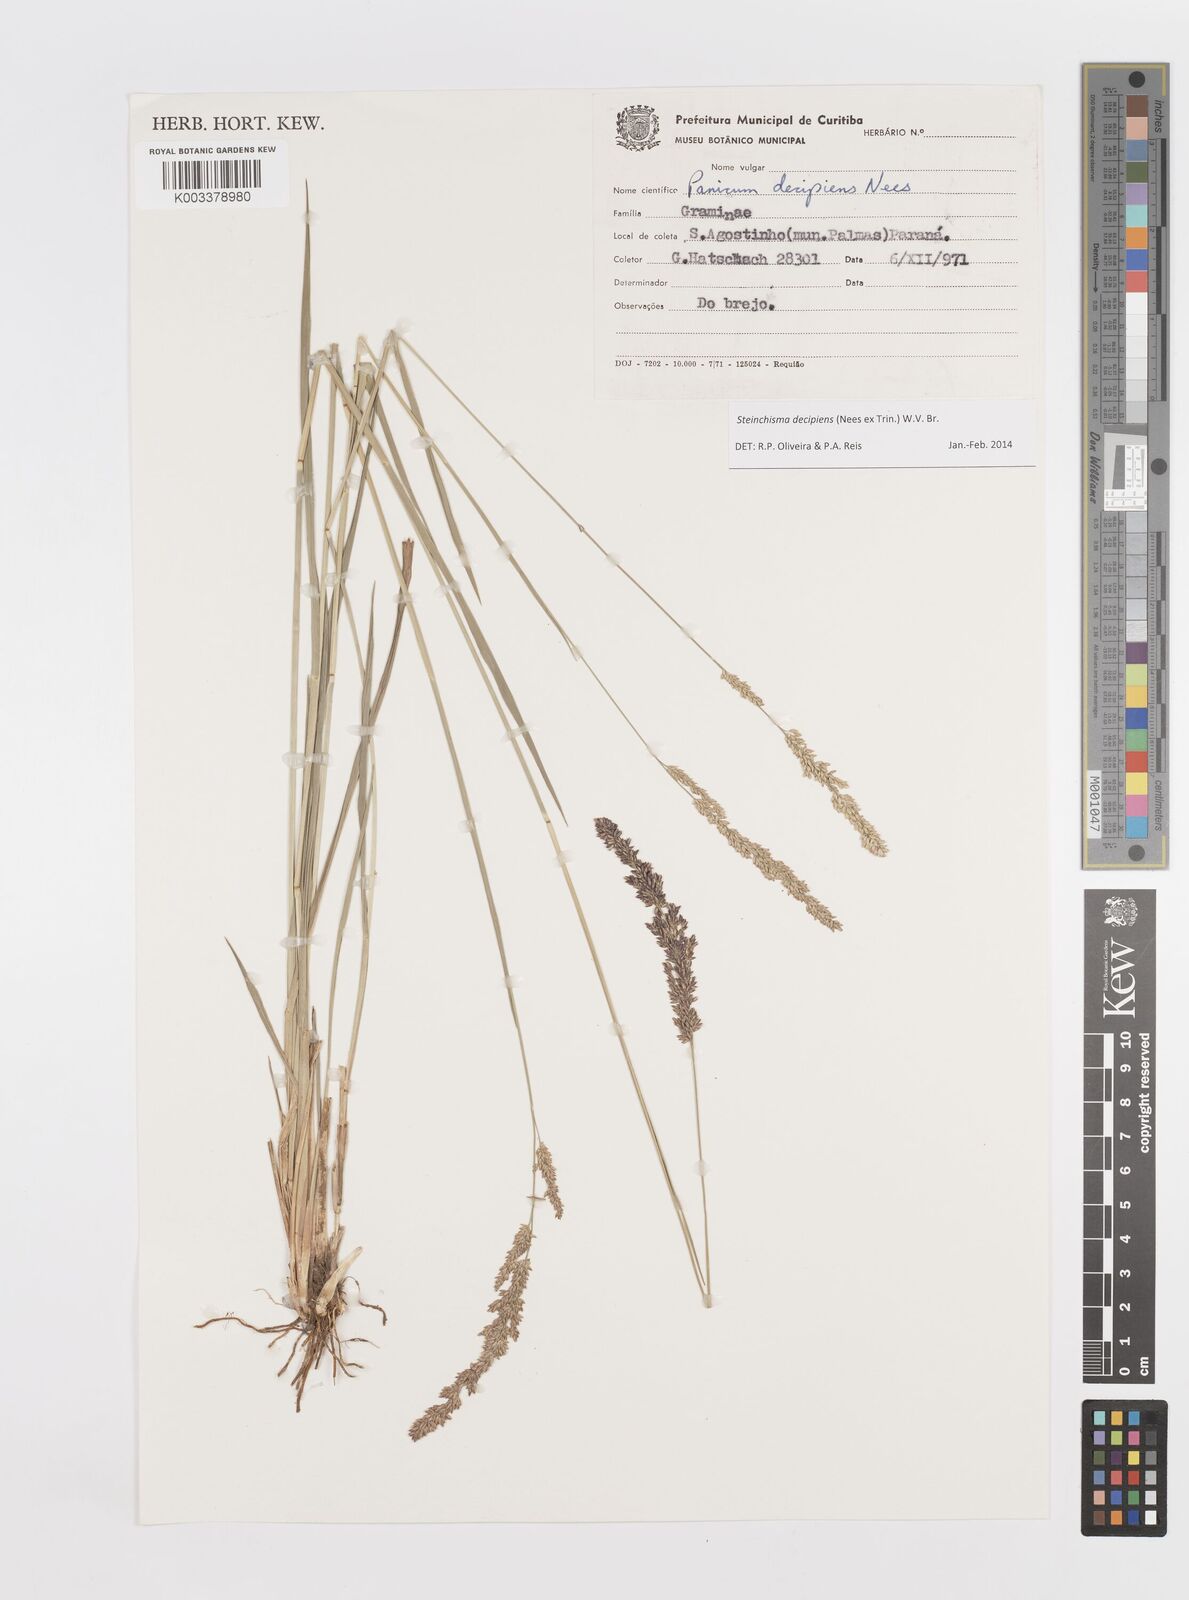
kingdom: Plantae
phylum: Tracheophyta
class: Liliopsida
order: Poales
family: Poaceae
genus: Steinchisma
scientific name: Steinchisma decipiens
